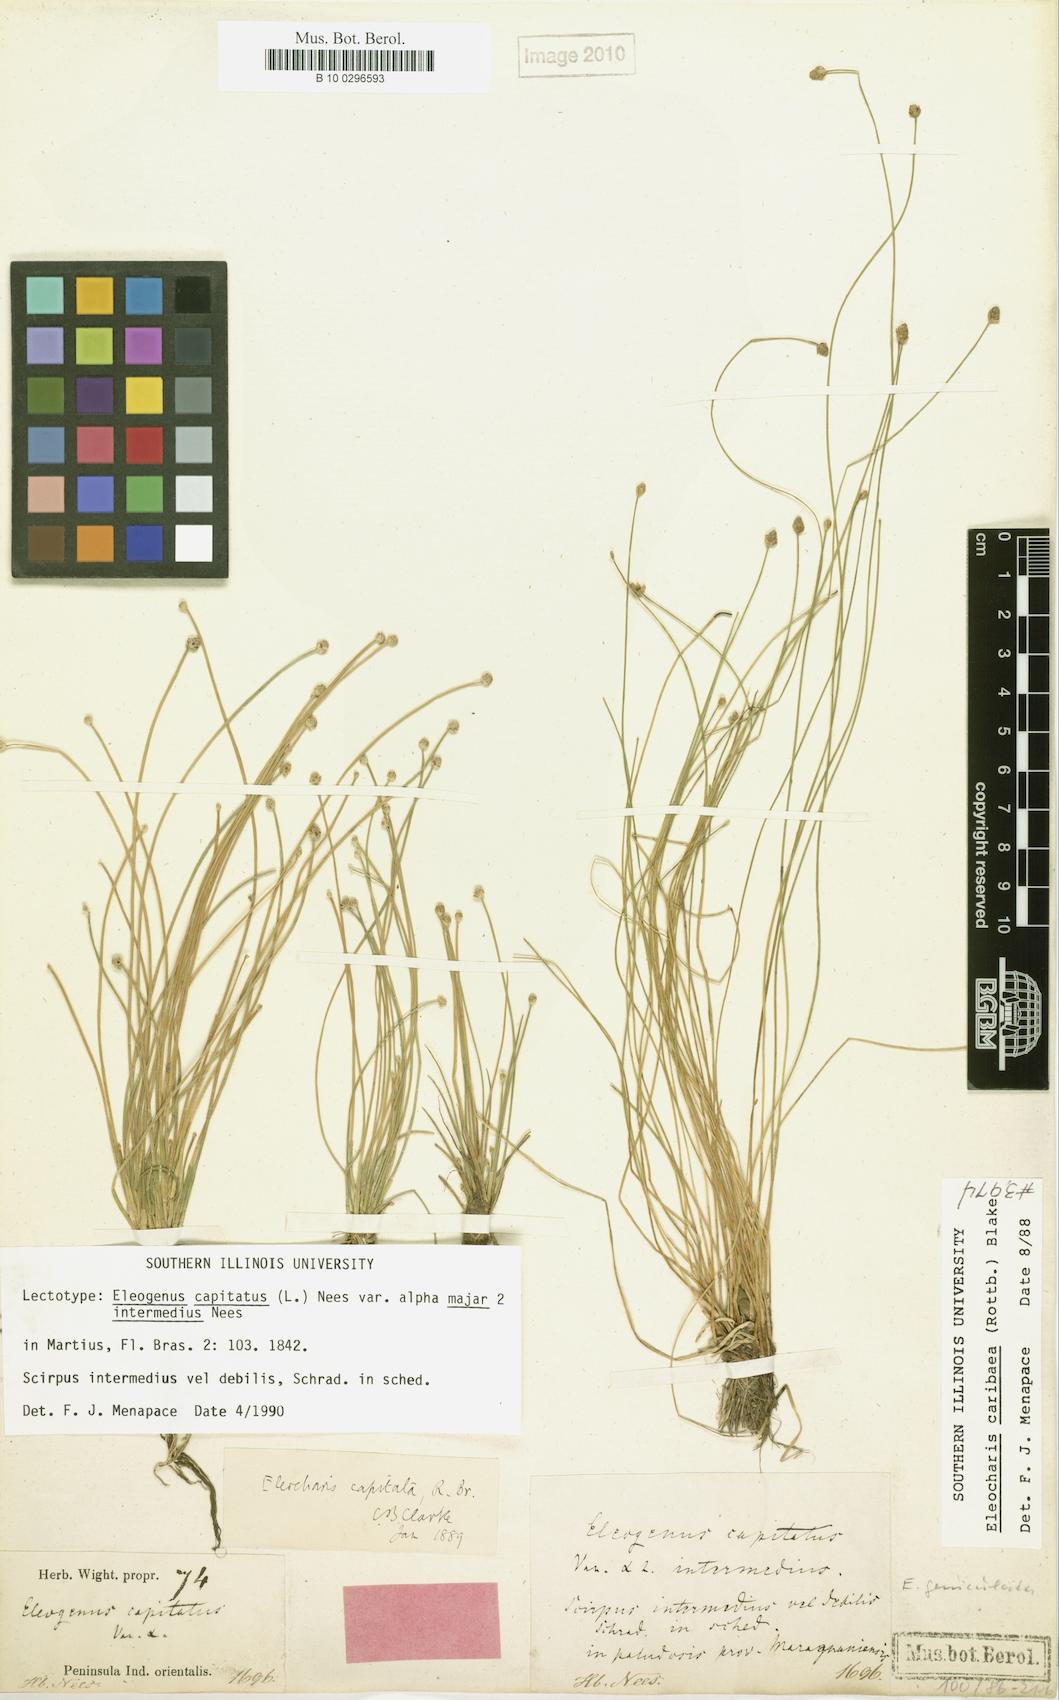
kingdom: Plantae
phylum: Tracheophyta
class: Liliopsida
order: Poales
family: Cyperaceae
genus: Eleocharis
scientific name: Eleocharis geniculata
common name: Canada spikesedge
